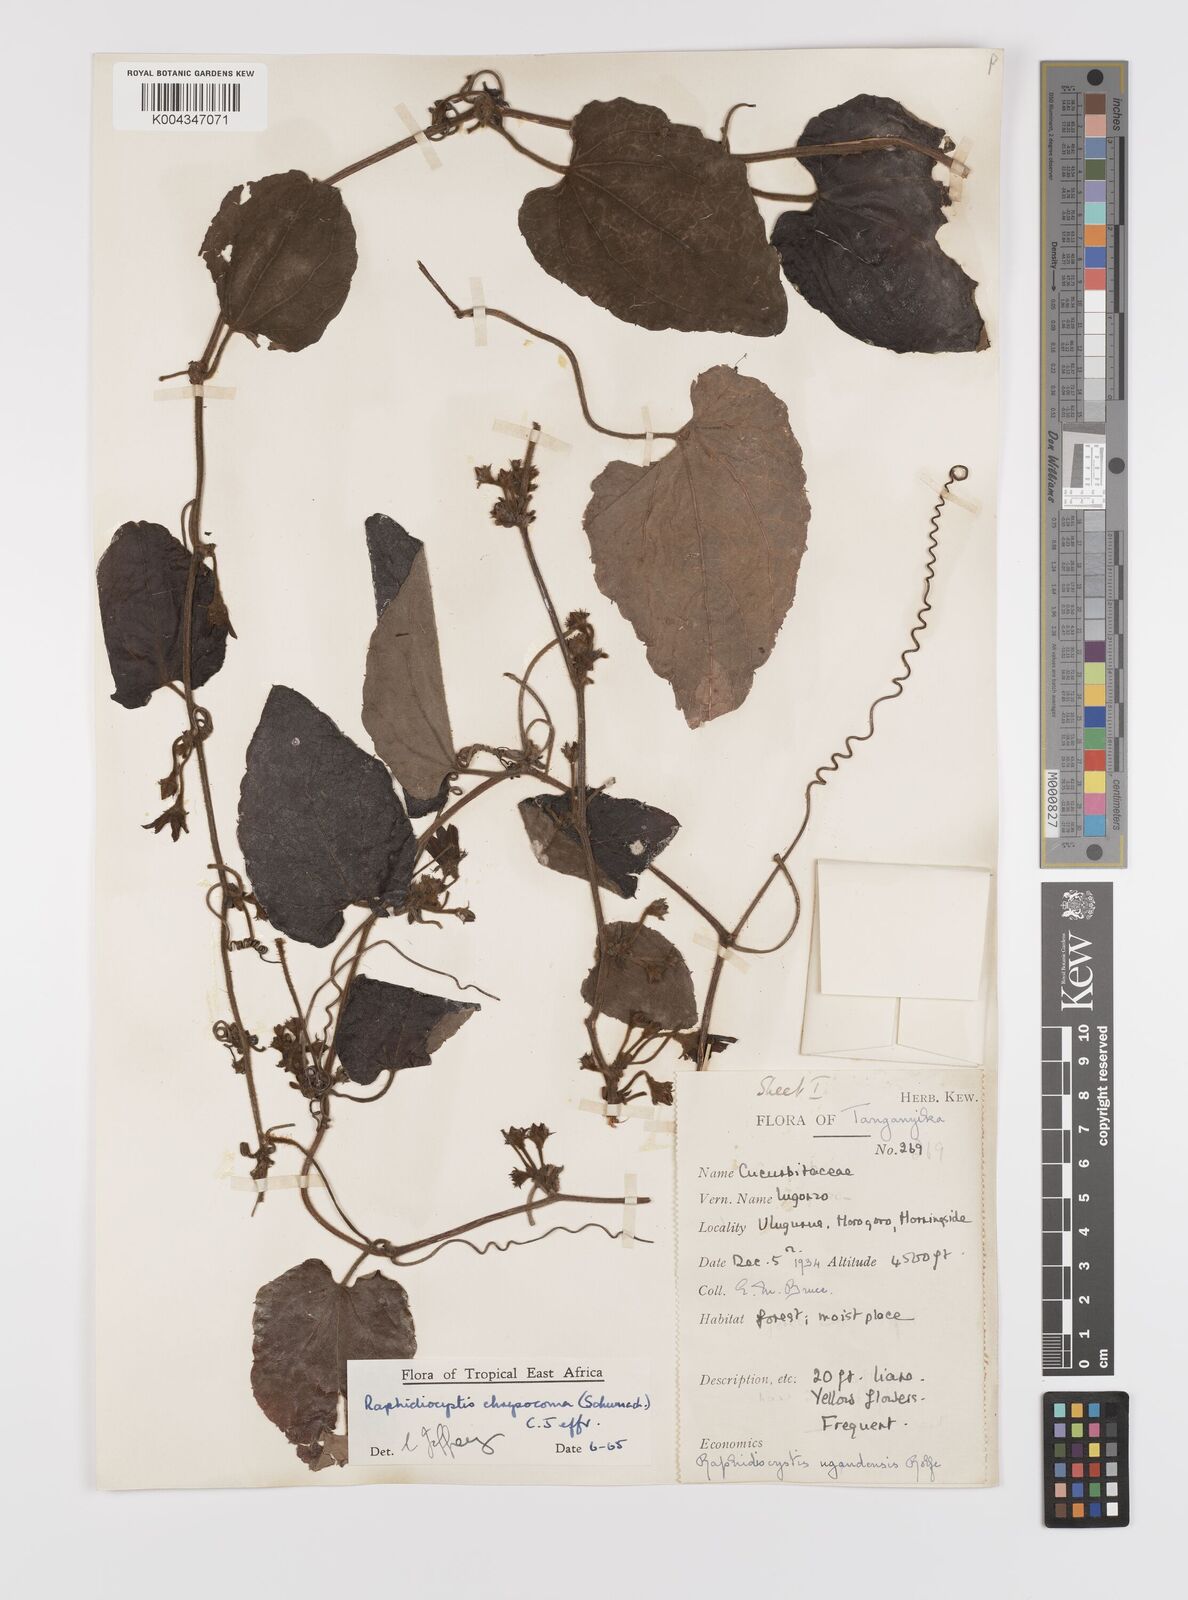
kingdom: Plantae
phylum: Tracheophyta
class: Magnoliopsida
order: Cucurbitales
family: Cucurbitaceae
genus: Raphidiocystis
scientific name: Raphidiocystis chrysocoma
